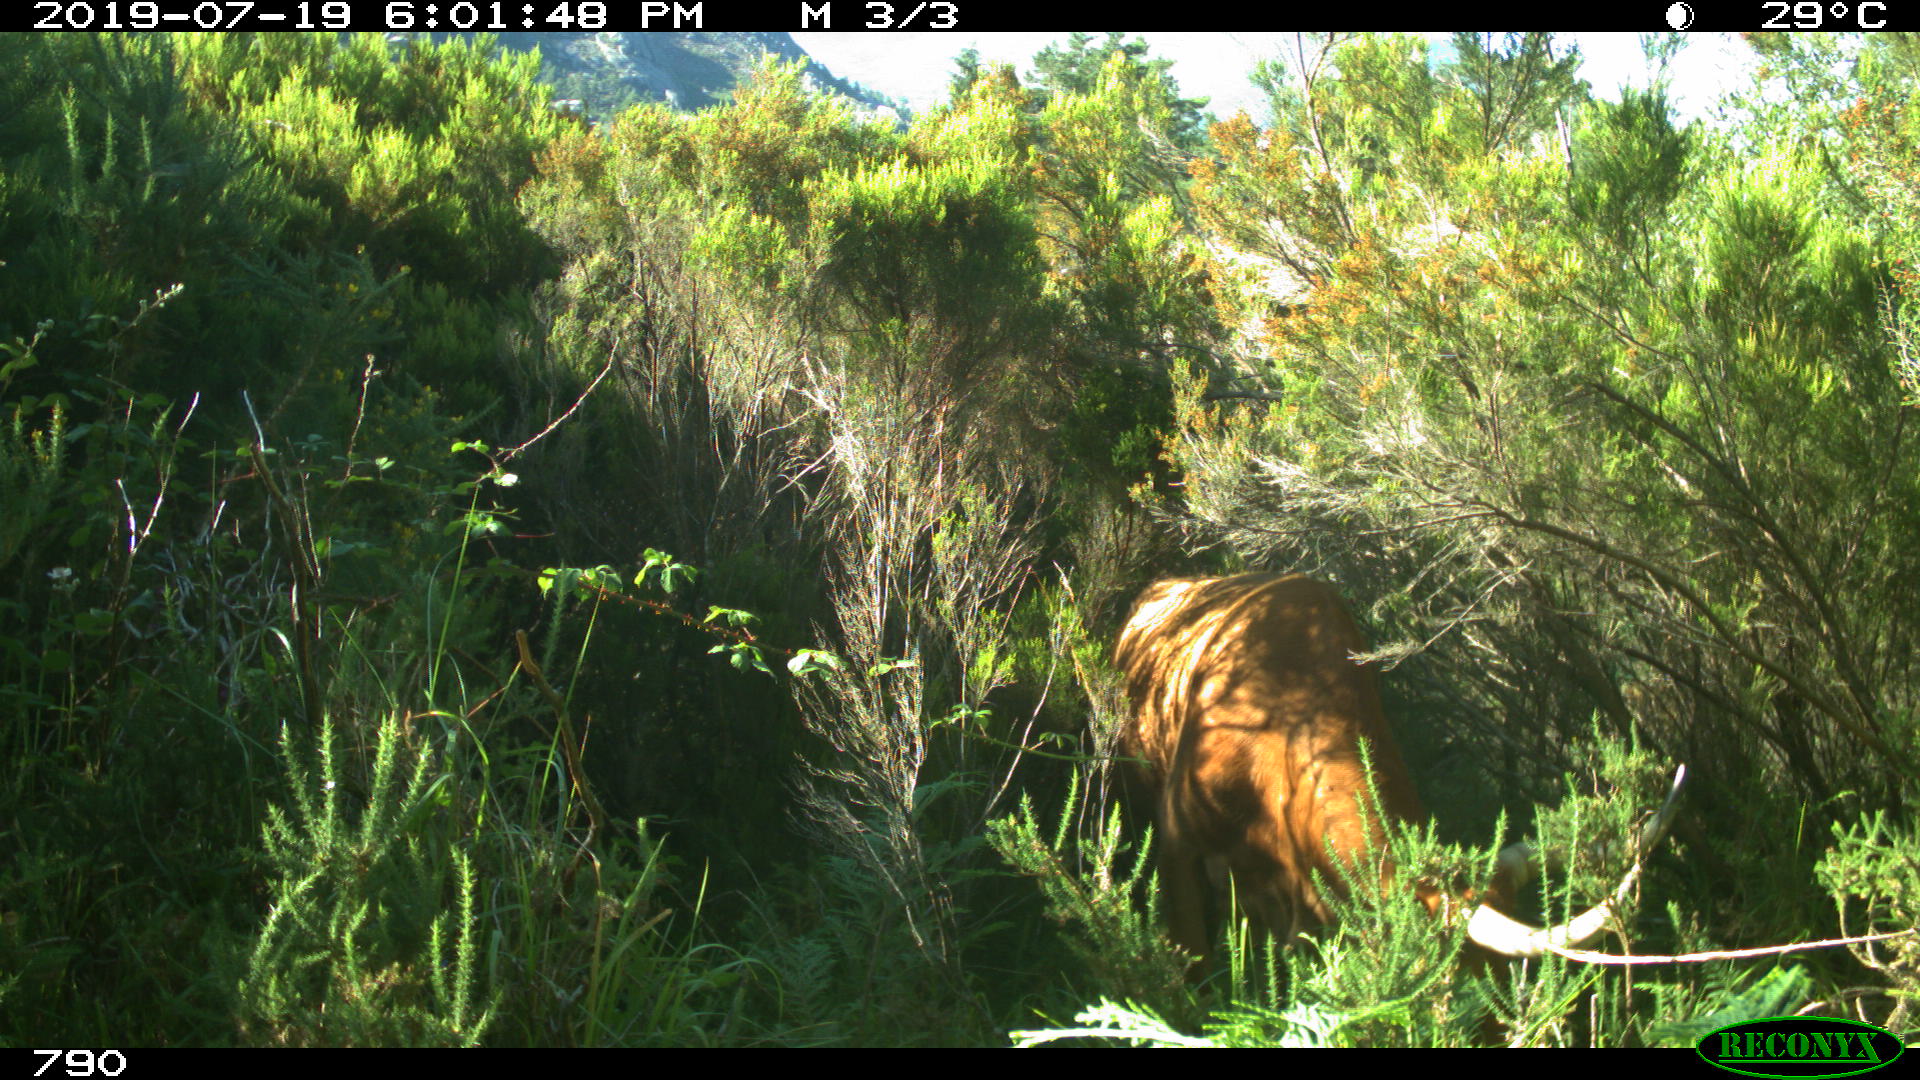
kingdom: Animalia
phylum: Chordata
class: Mammalia
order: Artiodactyla
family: Bovidae
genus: Bos
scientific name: Bos taurus
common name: Domesticated cattle
